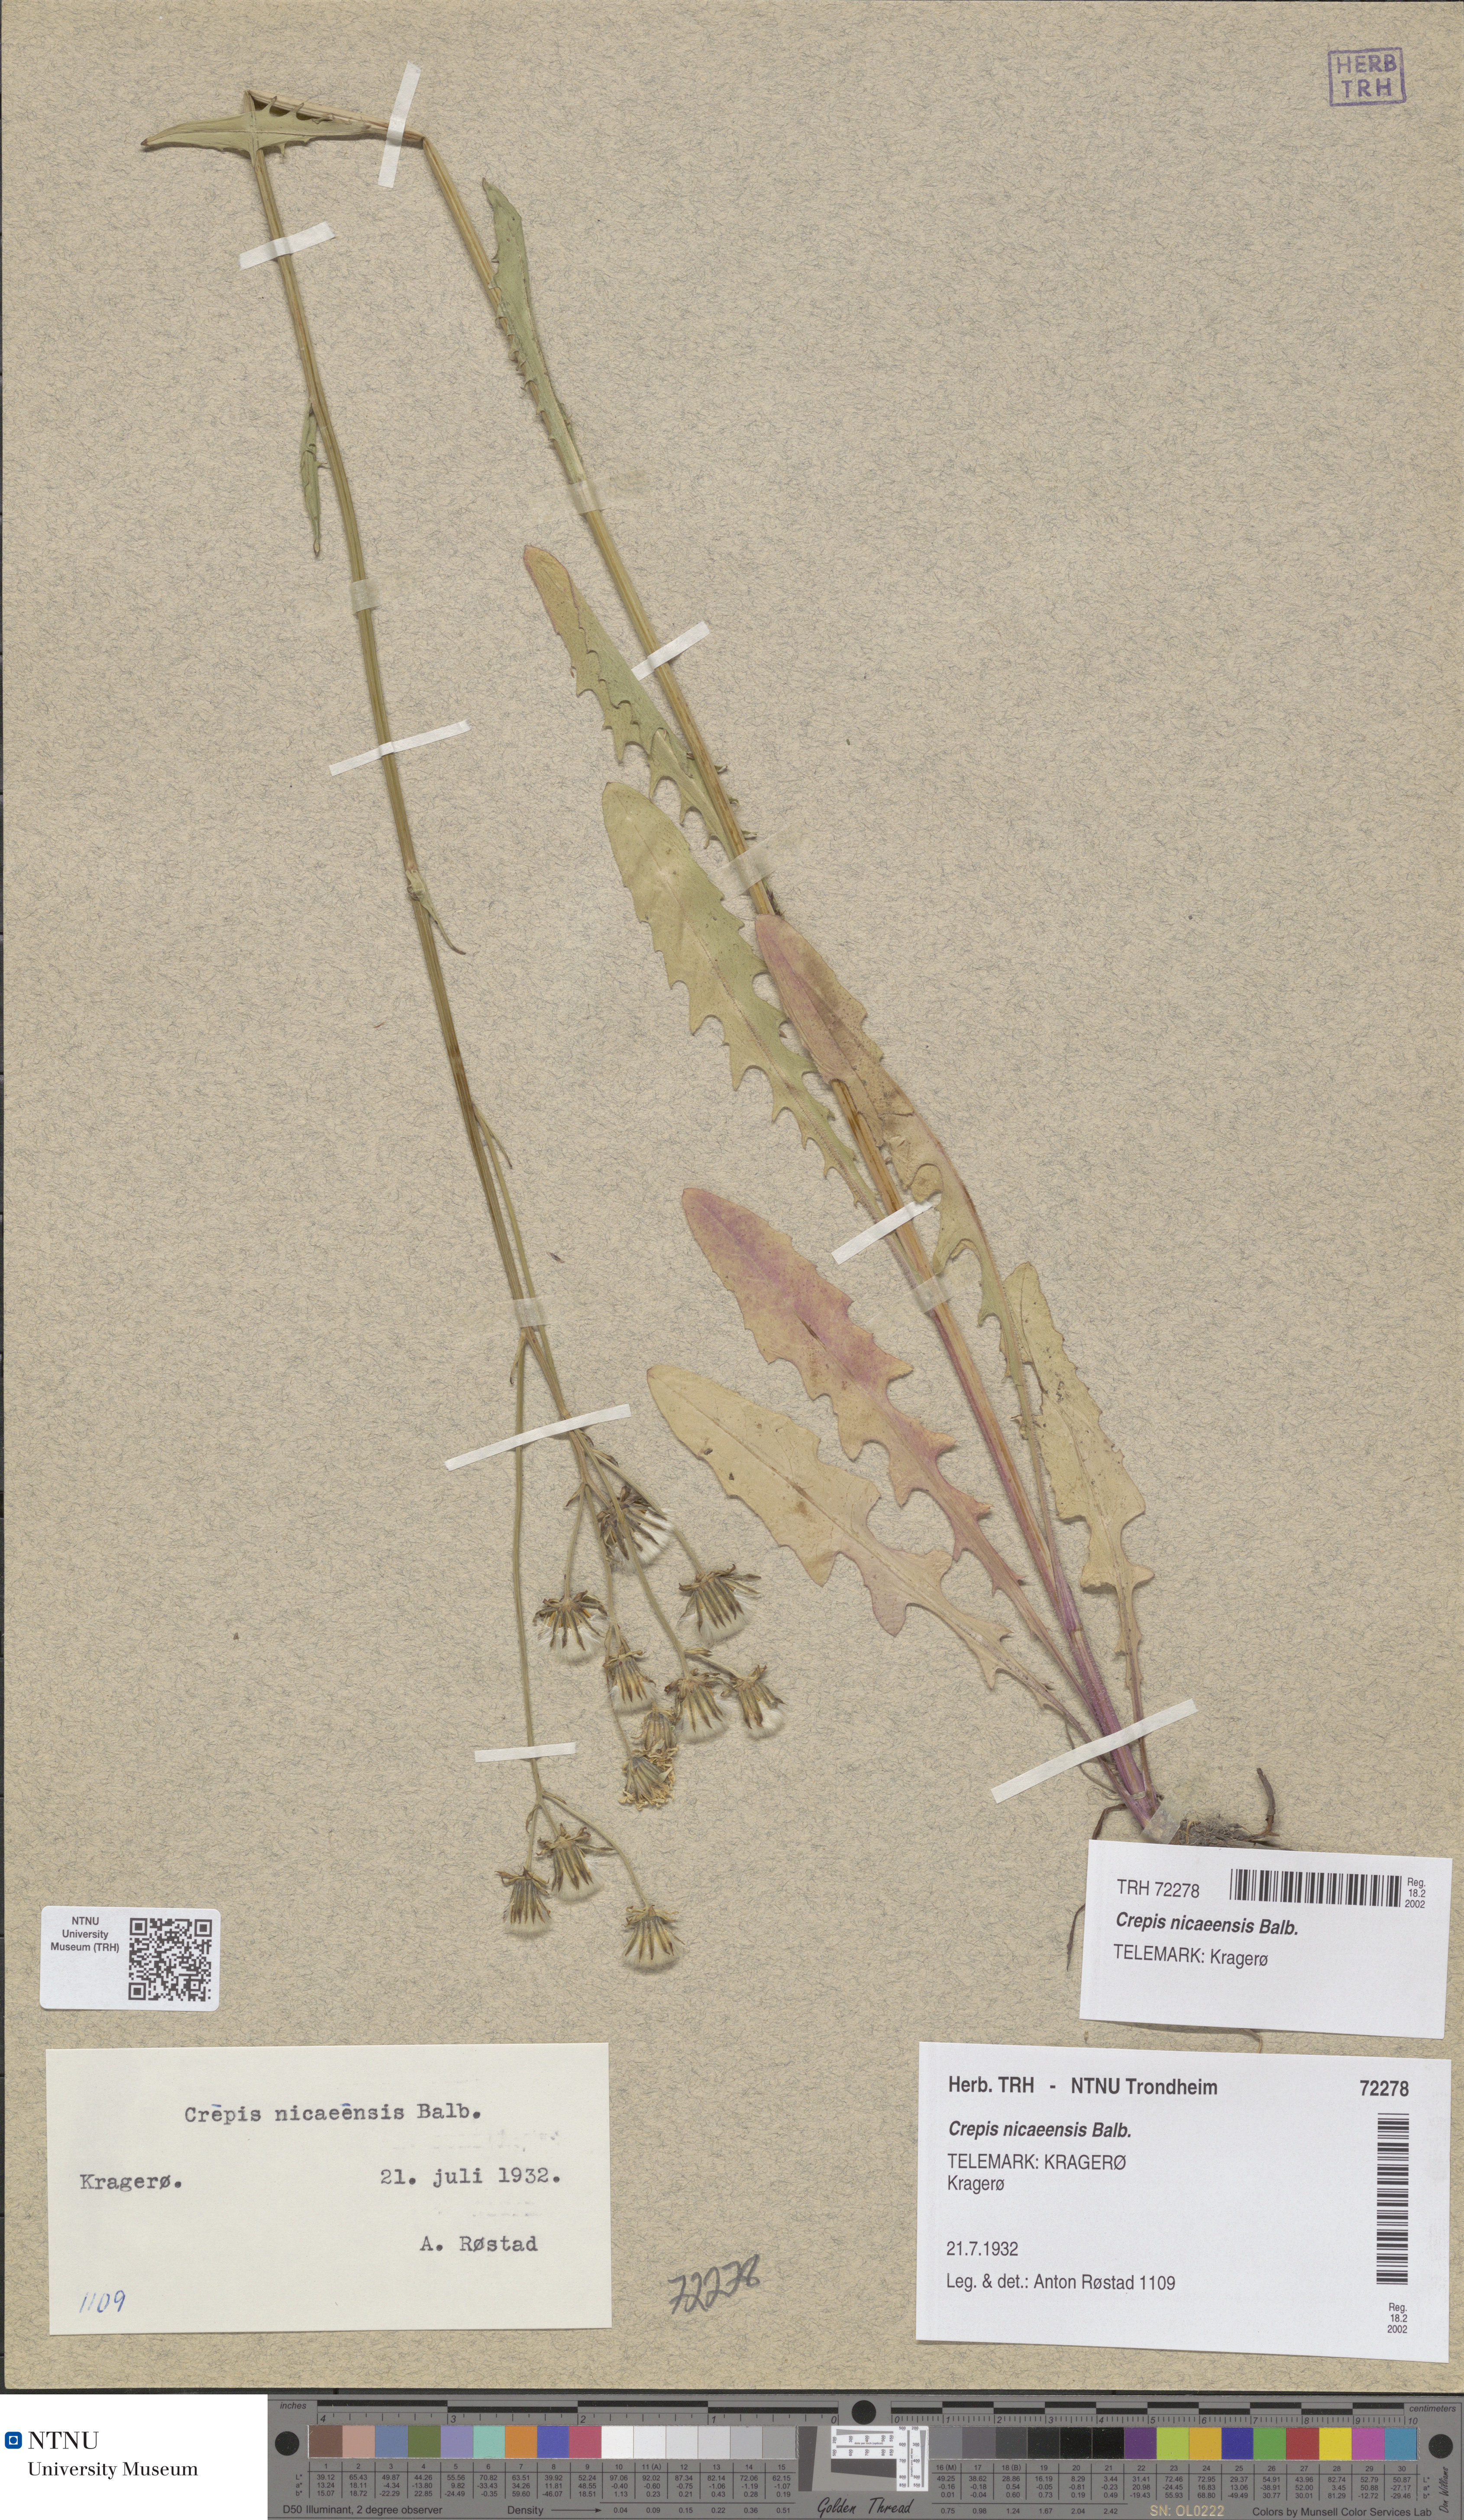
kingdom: Plantae
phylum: Tracheophyta
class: Magnoliopsida
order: Asterales
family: Asteraceae
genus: Crepis
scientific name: Crepis nicaeensis
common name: Turkish hawksbeard
